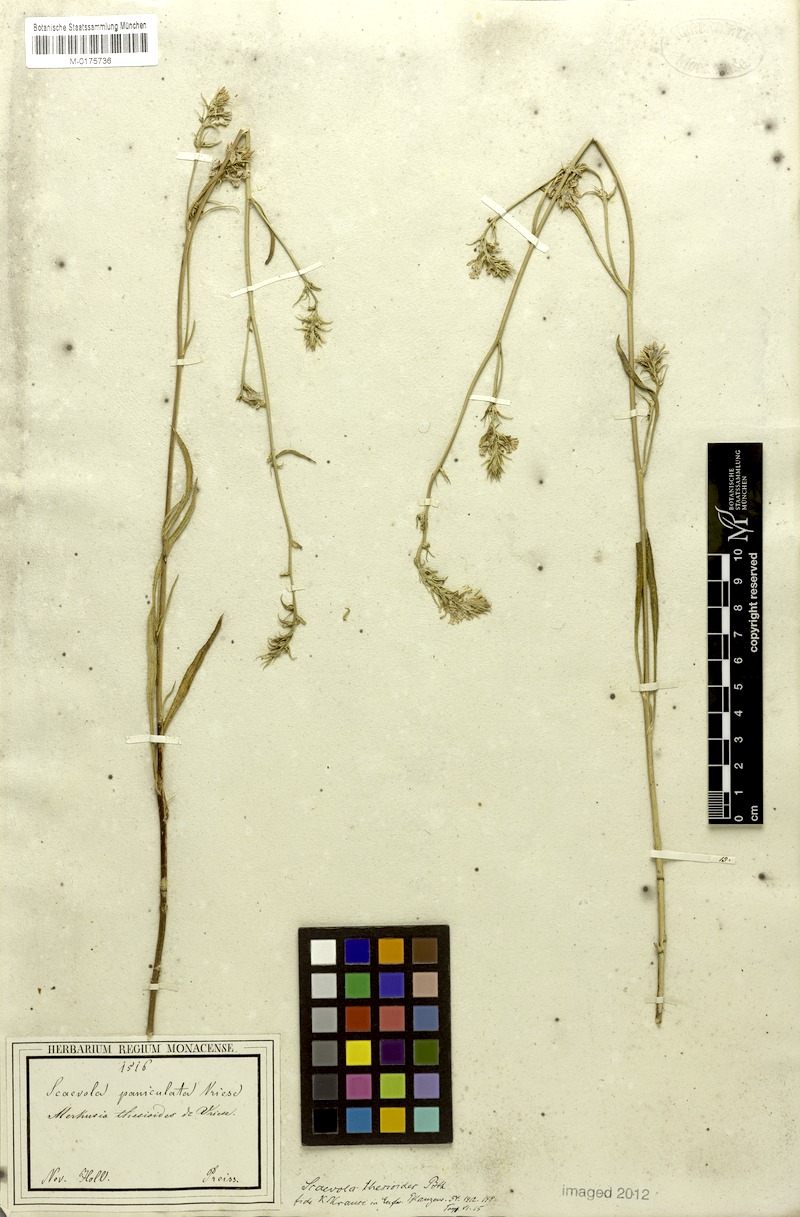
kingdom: Plantae
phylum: Tracheophyta
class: Magnoliopsida
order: Asterales
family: Goodeniaceae
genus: Scaevola
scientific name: Scaevola thesioides
